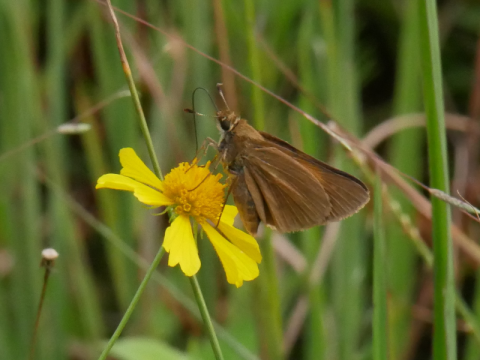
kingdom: Animalia
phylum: Arthropoda
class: Insecta
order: Lepidoptera
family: Hesperiidae
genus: Poanes
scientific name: Poanes aaroni
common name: Aaron's Skipper
